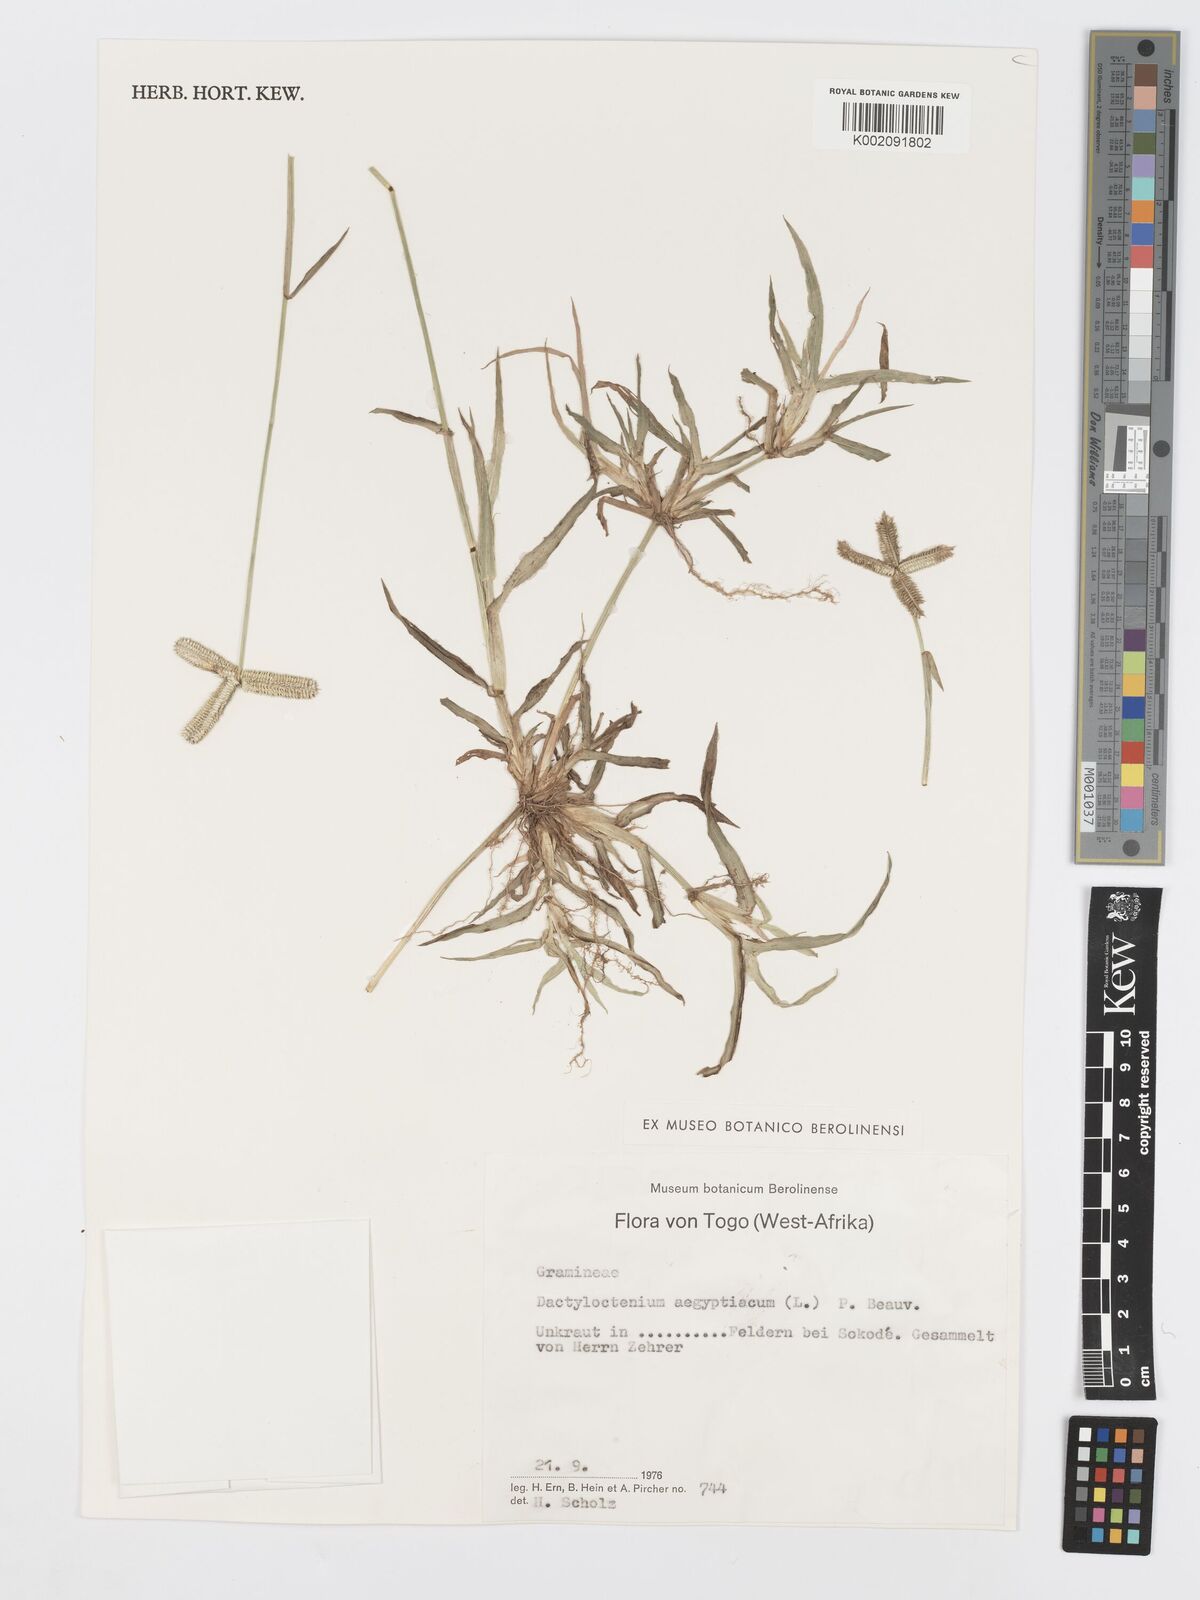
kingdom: Plantae
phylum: Tracheophyta
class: Liliopsida
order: Poales
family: Poaceae
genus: Dactyloctenium
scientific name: Dactyloctenium aegyptium
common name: Egyptian grass
